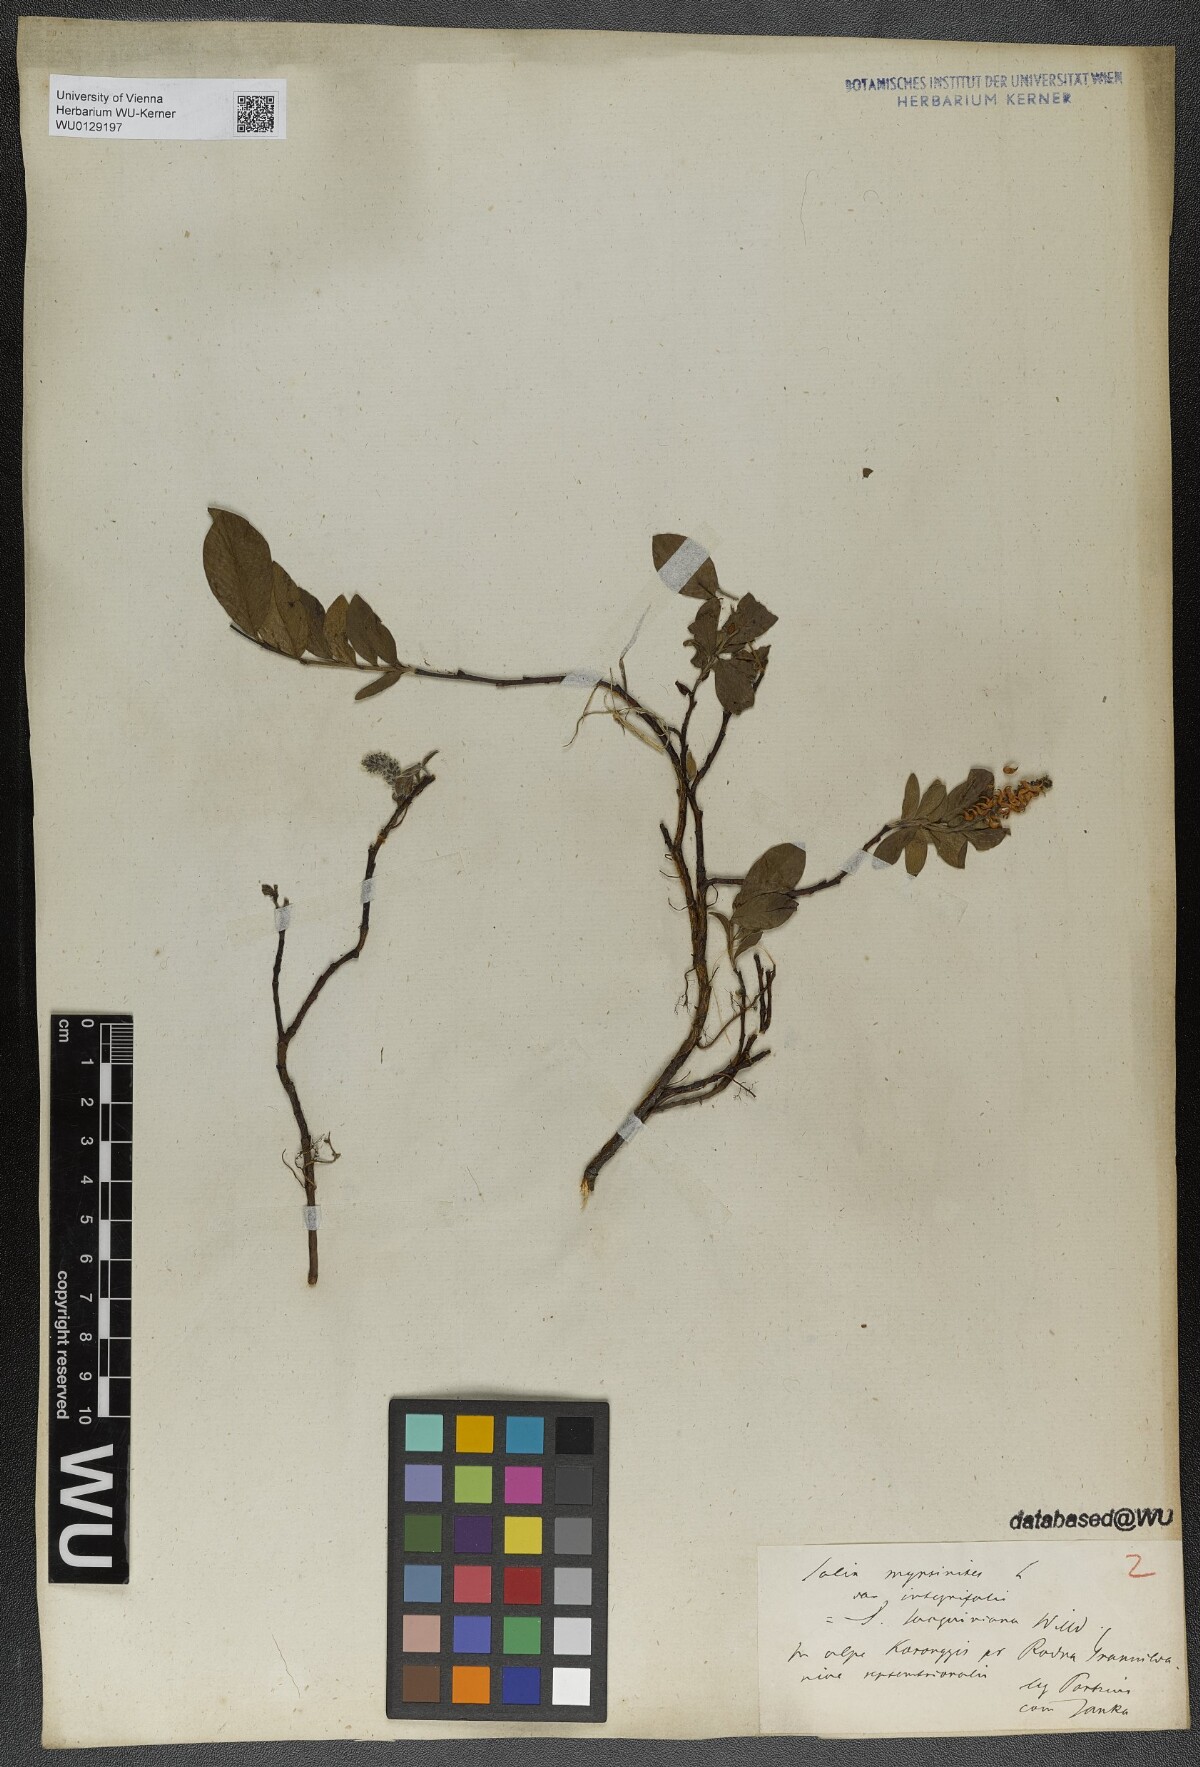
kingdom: Plantae
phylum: Tracheophyta
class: Magnoliopsida
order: Malpighiales
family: Salicaceae
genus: Salix
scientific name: Salix myrsinites
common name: Myrtle willow
